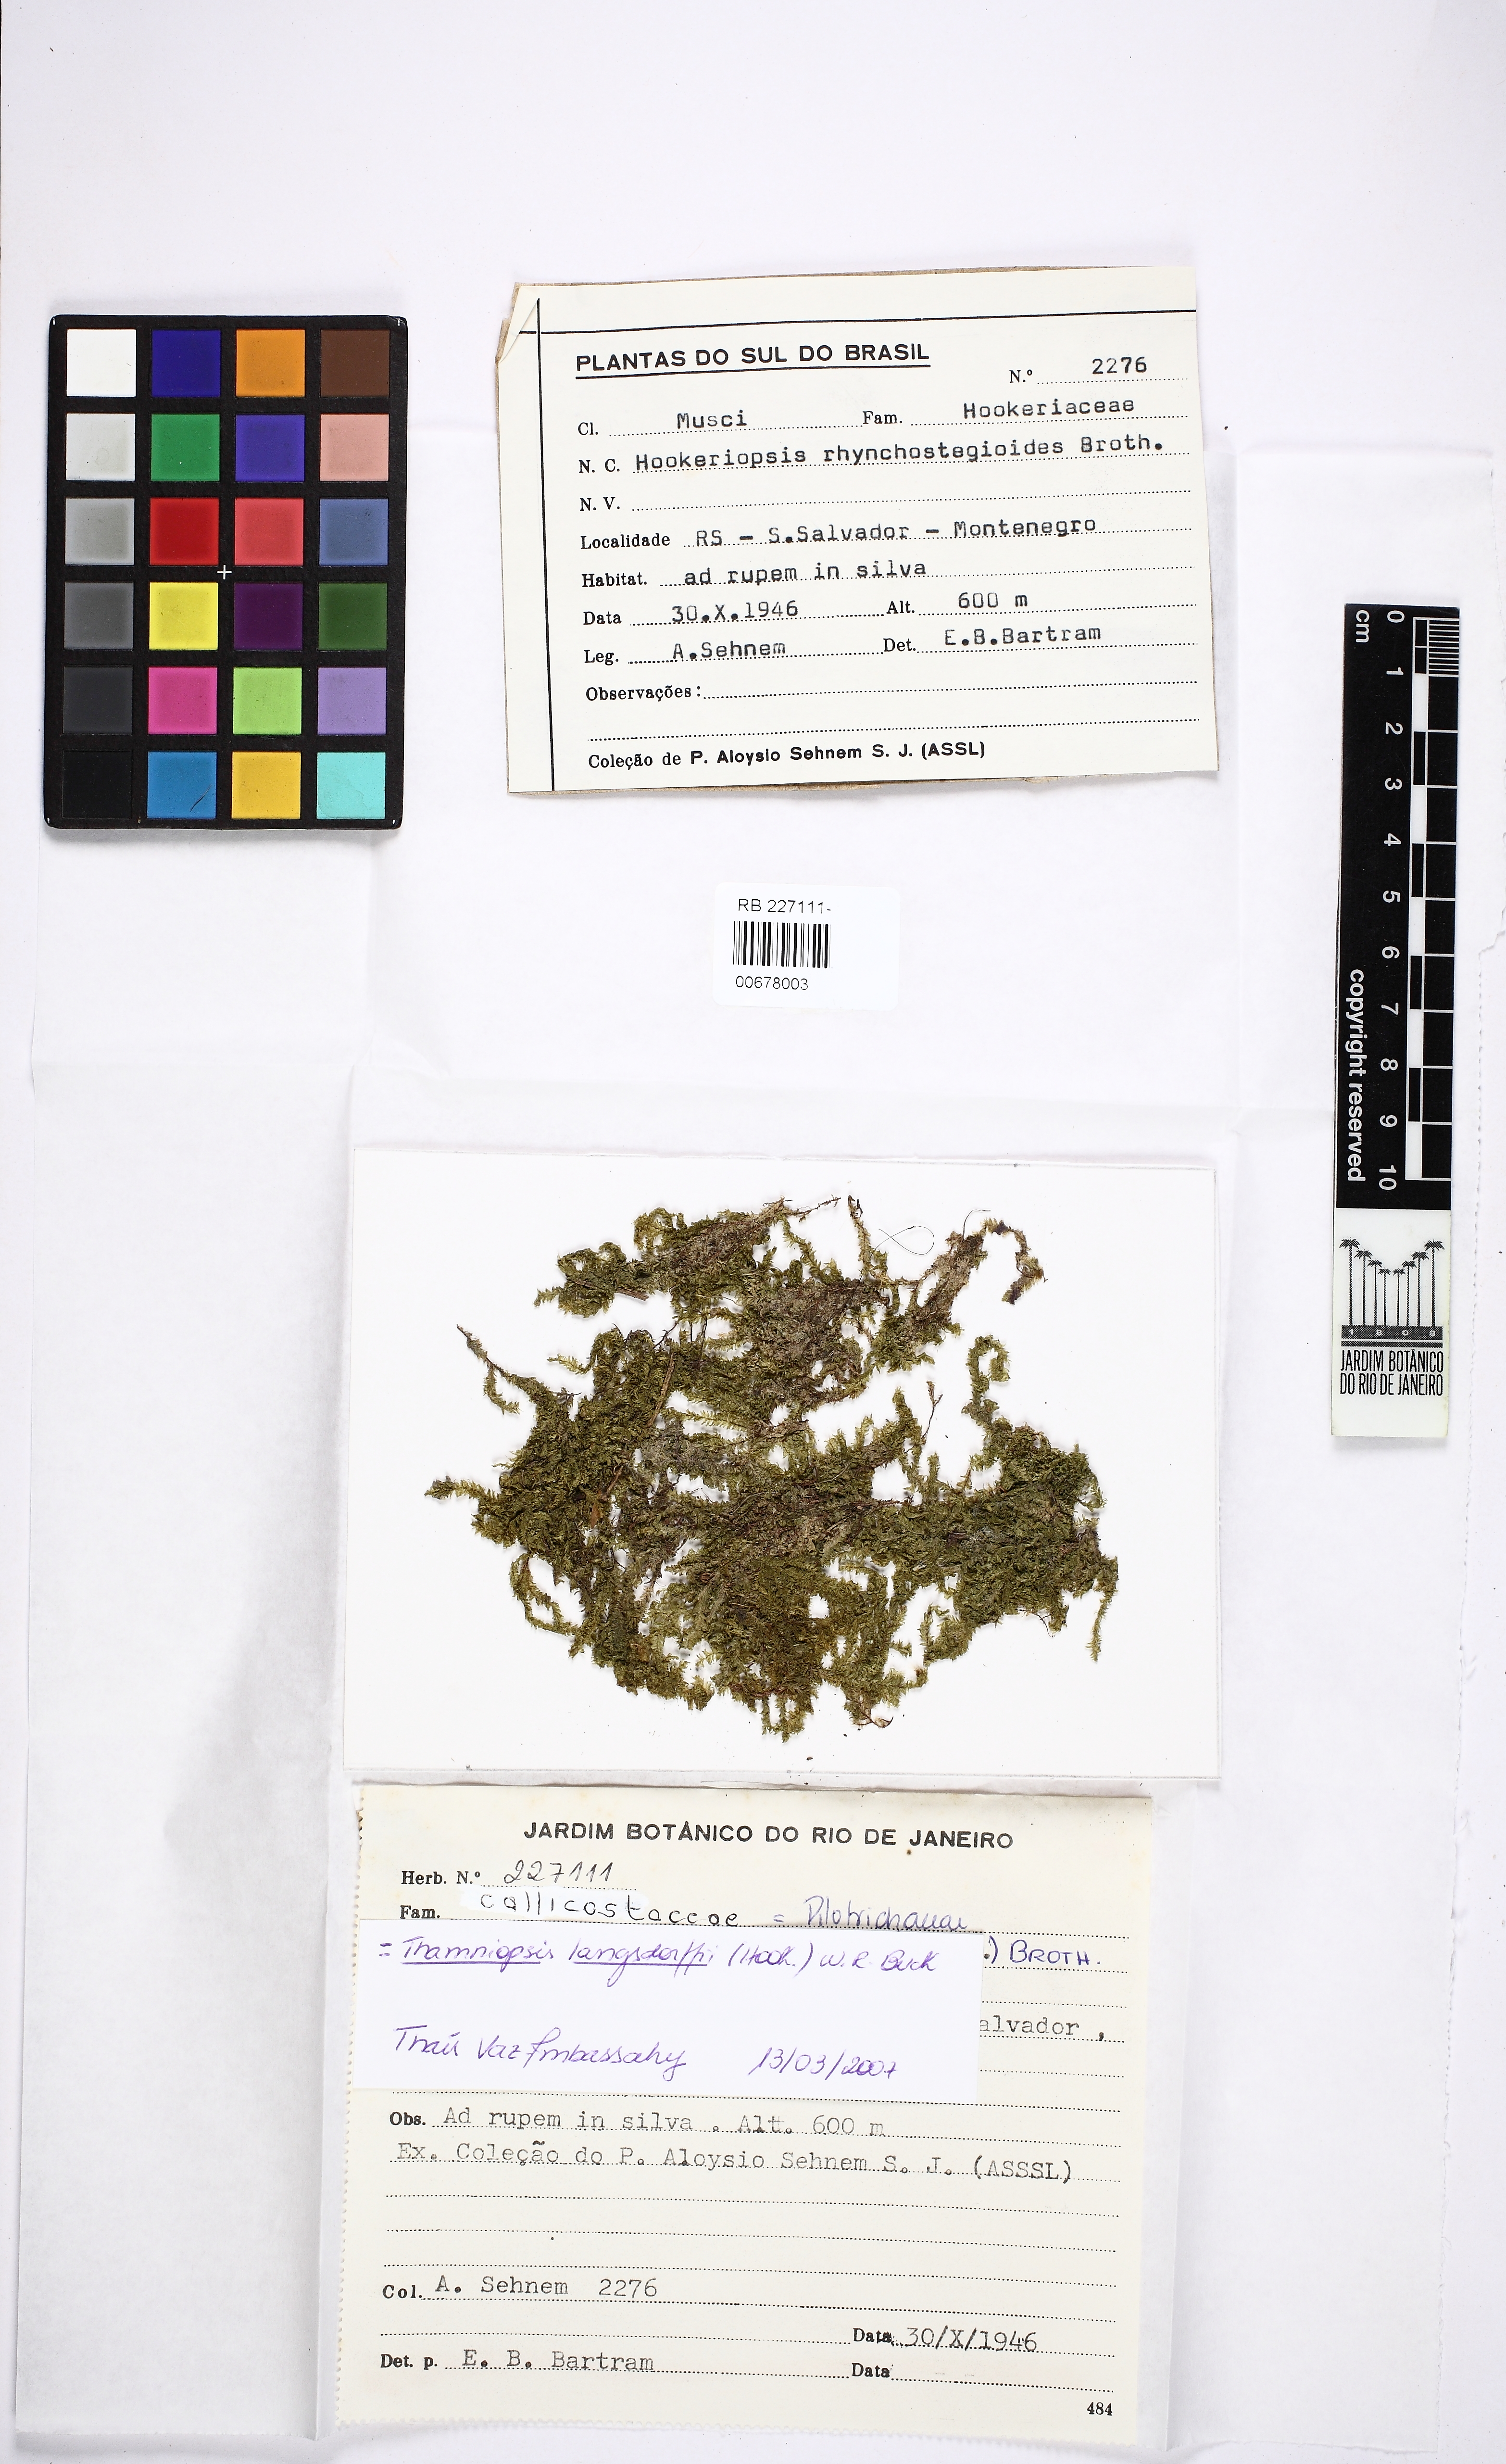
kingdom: Plantae
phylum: Bryophyta
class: Bryopsida
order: Hookeriales
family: Pilotrichaceae
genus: Thamniopsis
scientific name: Thamniopsis langsdorffii
